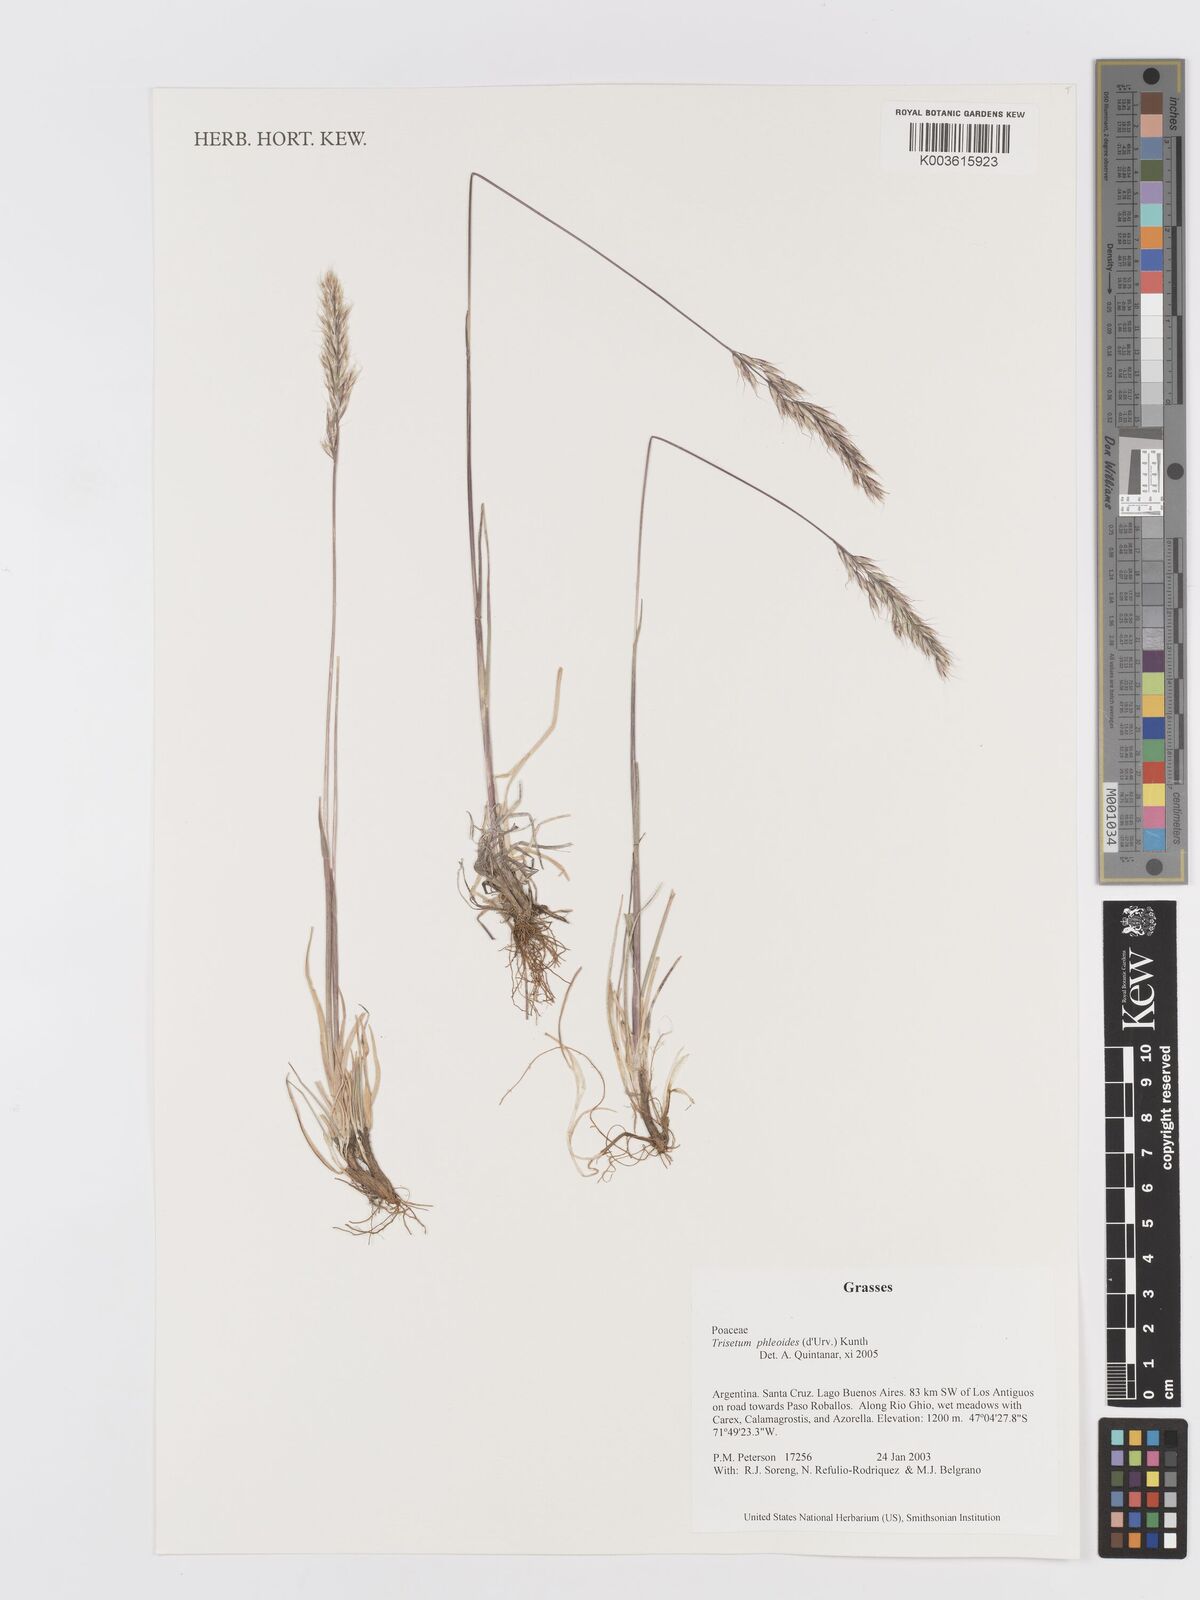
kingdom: Plantae
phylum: Tracheophyta
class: Liliopsida
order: Poales
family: Poaceae
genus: Koeleria
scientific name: Koeleria spicata
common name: Mountain trisetum
